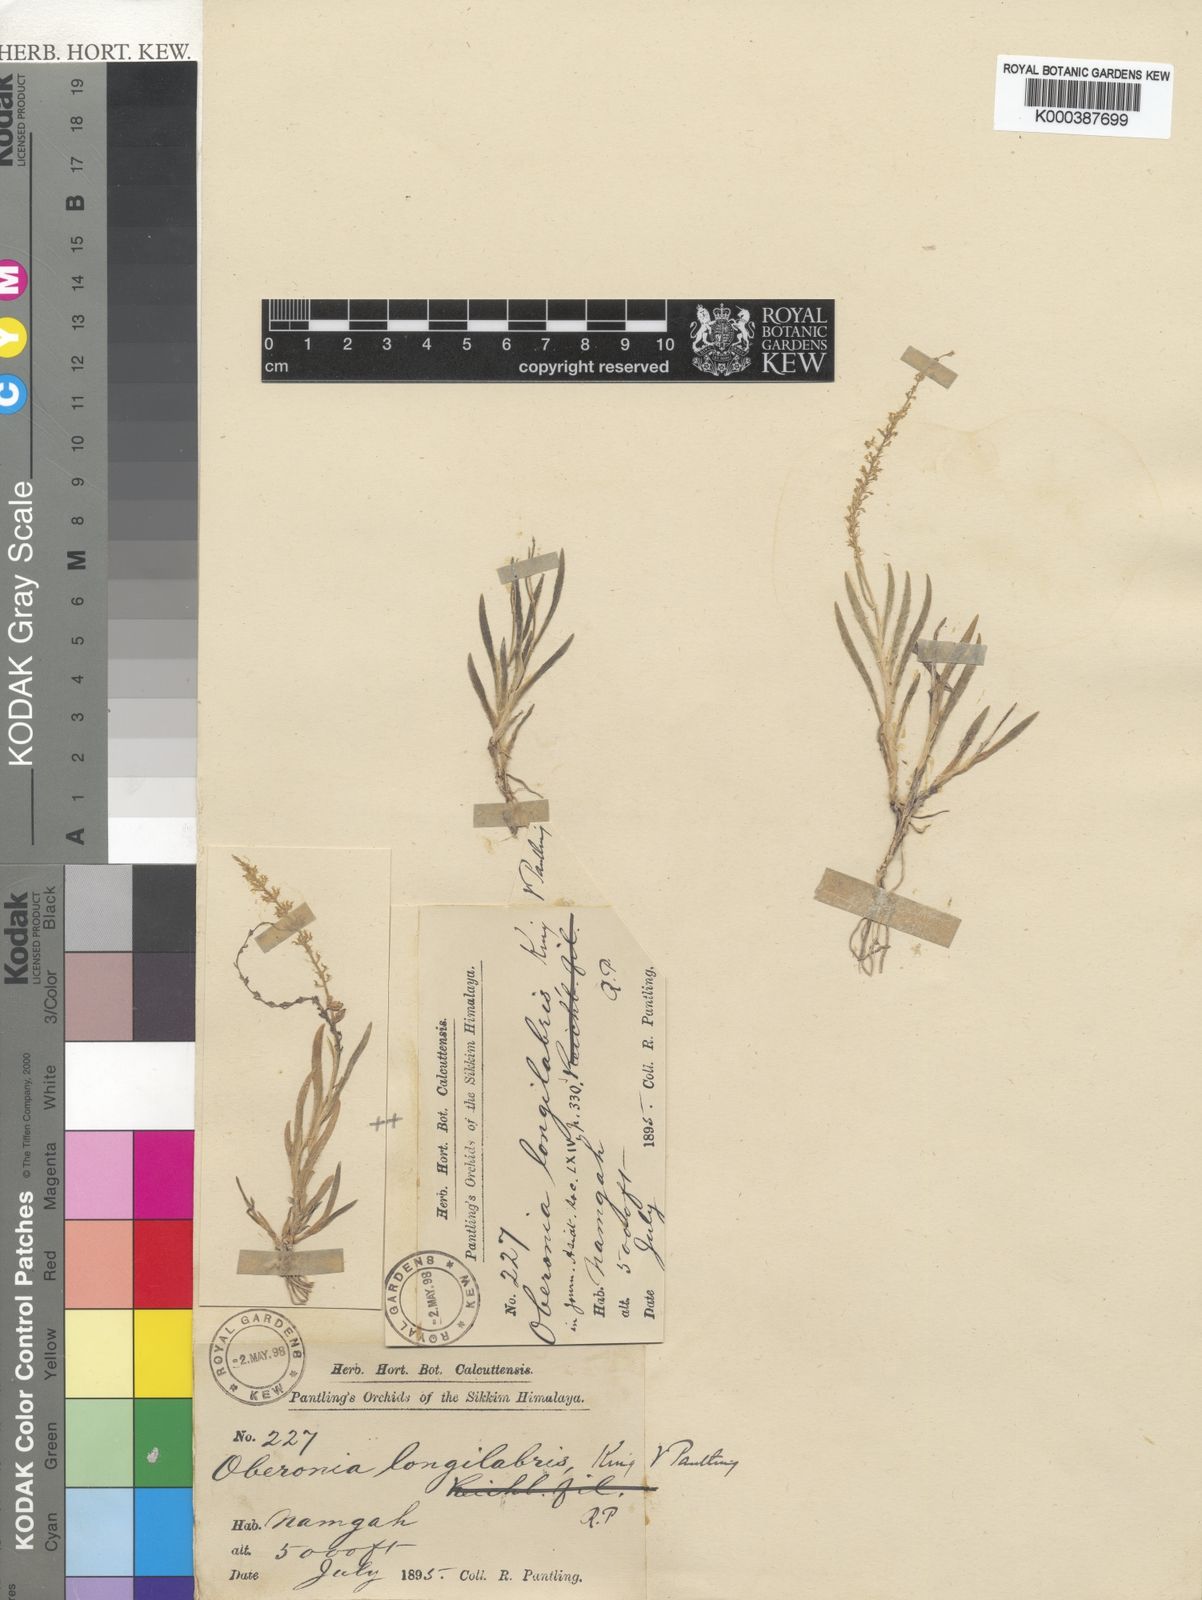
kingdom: Plantae
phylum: Tracheophyta
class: Liliopsida
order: Asparagales
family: Orchidaceae
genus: Oberonia
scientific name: Oberonia caulescens
